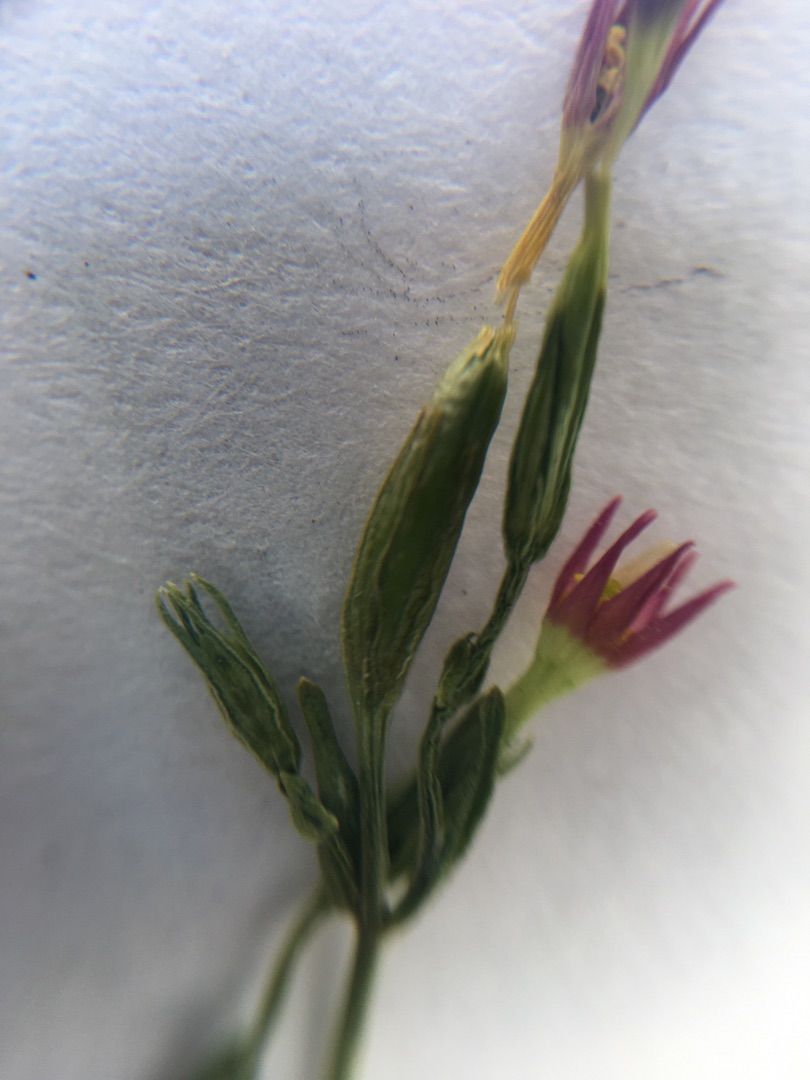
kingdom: Plantae
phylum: Tracheophyta
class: Magnoliopsida
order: Gentianales
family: Gentianaceae
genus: Centaurium
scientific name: Centaurium erythraea
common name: Mark-tusindgylden
